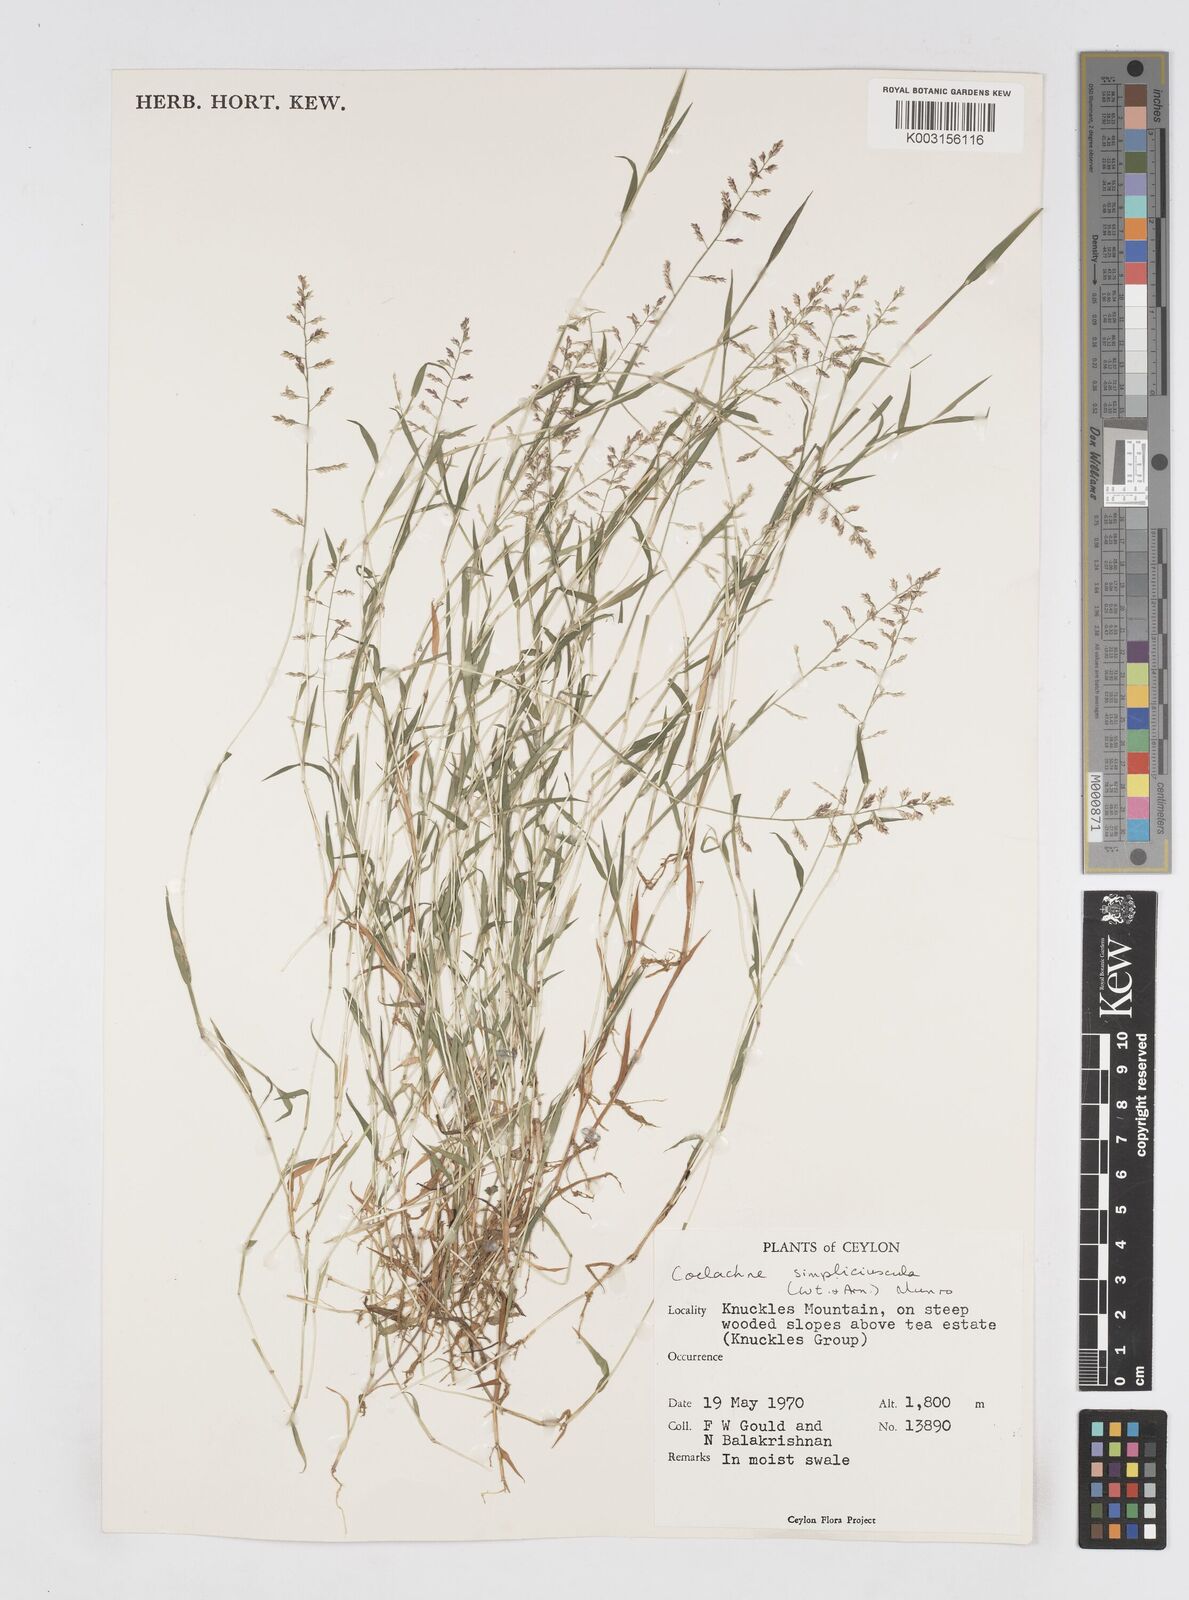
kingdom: Plantae
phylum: Tracheophyta
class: Liliopsida
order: Poales
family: Poaceae
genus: Coelachne
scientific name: Coelachne simpliciuscula
